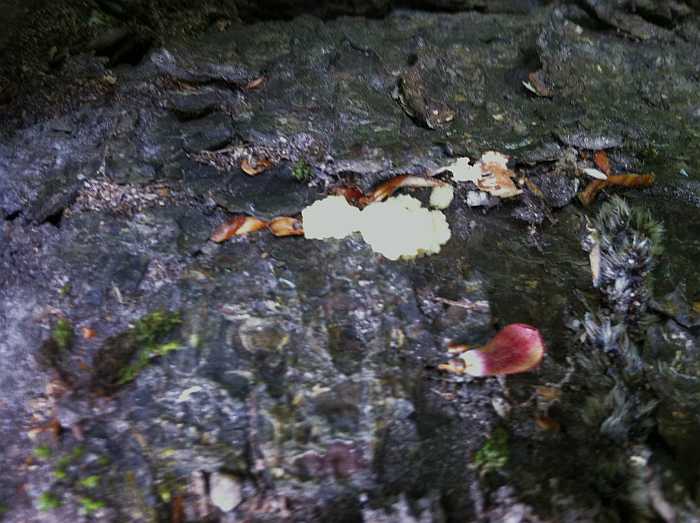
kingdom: Protozoa
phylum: Mycetozoa
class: Myxomycetes
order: Physarales
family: Physaraceae
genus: Fuligo
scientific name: Fuligo septica
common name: gul troldsmør
